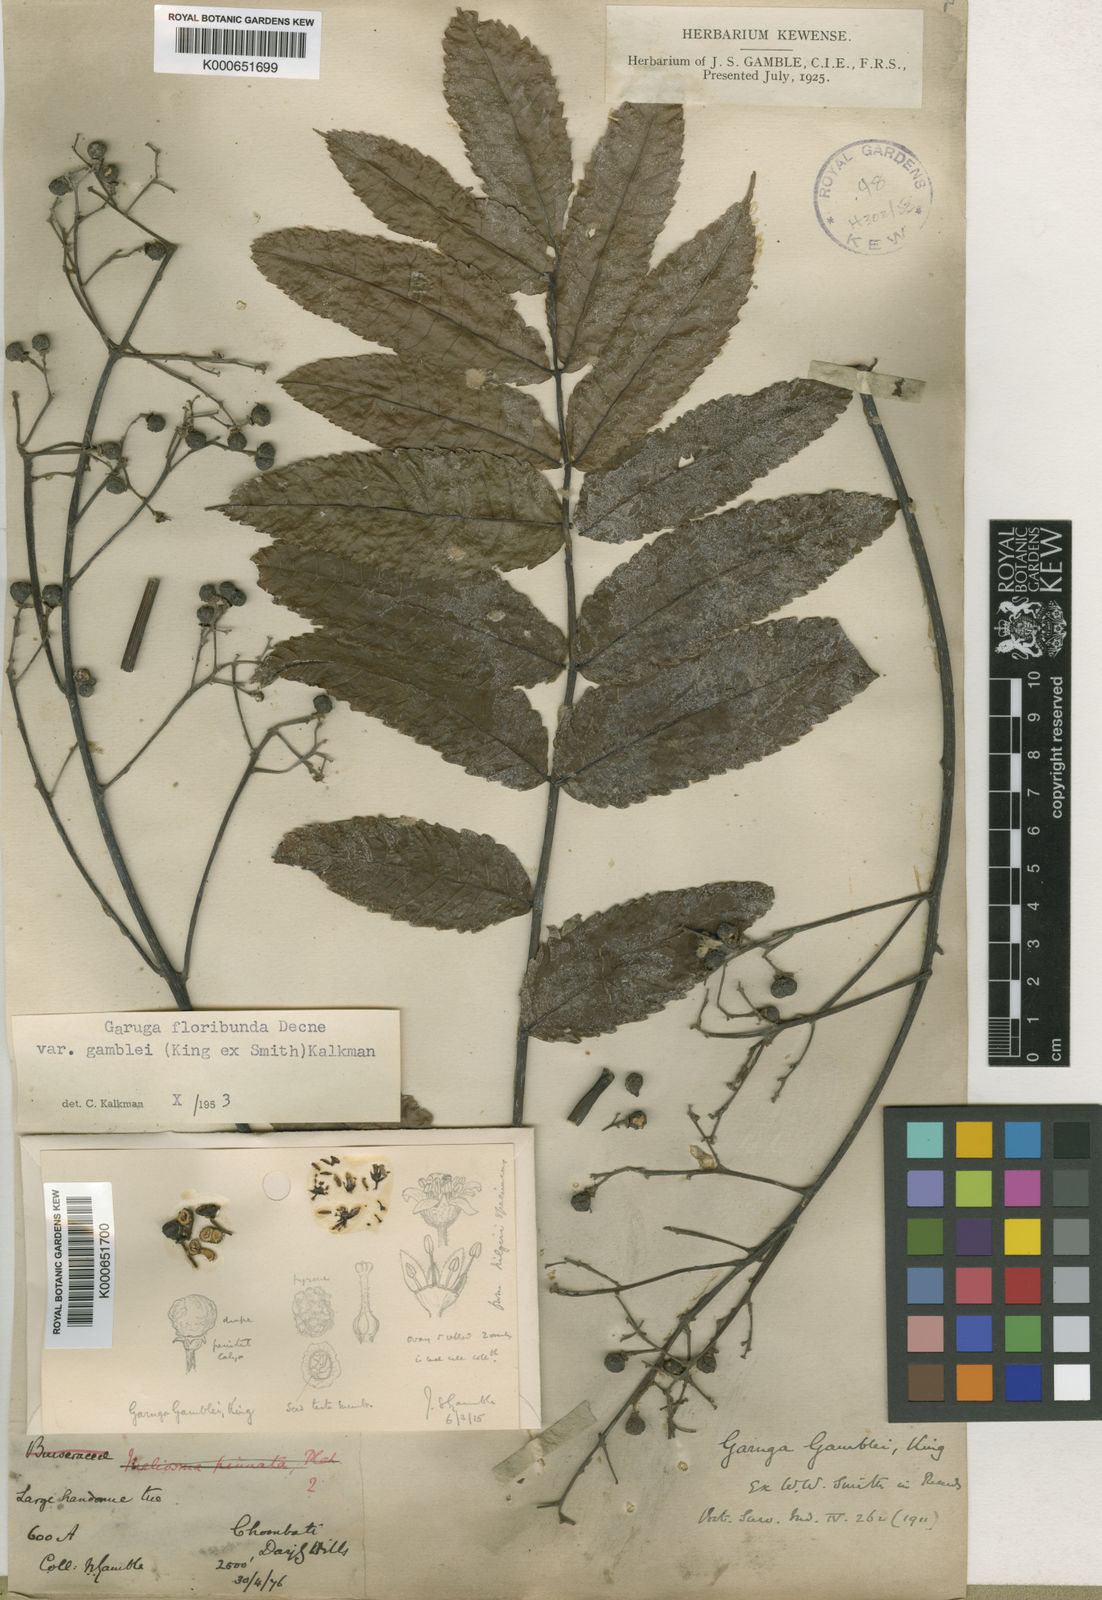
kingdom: Plantae
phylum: Tracheophyta
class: Magnoliopsida
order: Sapindales
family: Burseraceae
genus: Garuga
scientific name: Garuga floribunda
